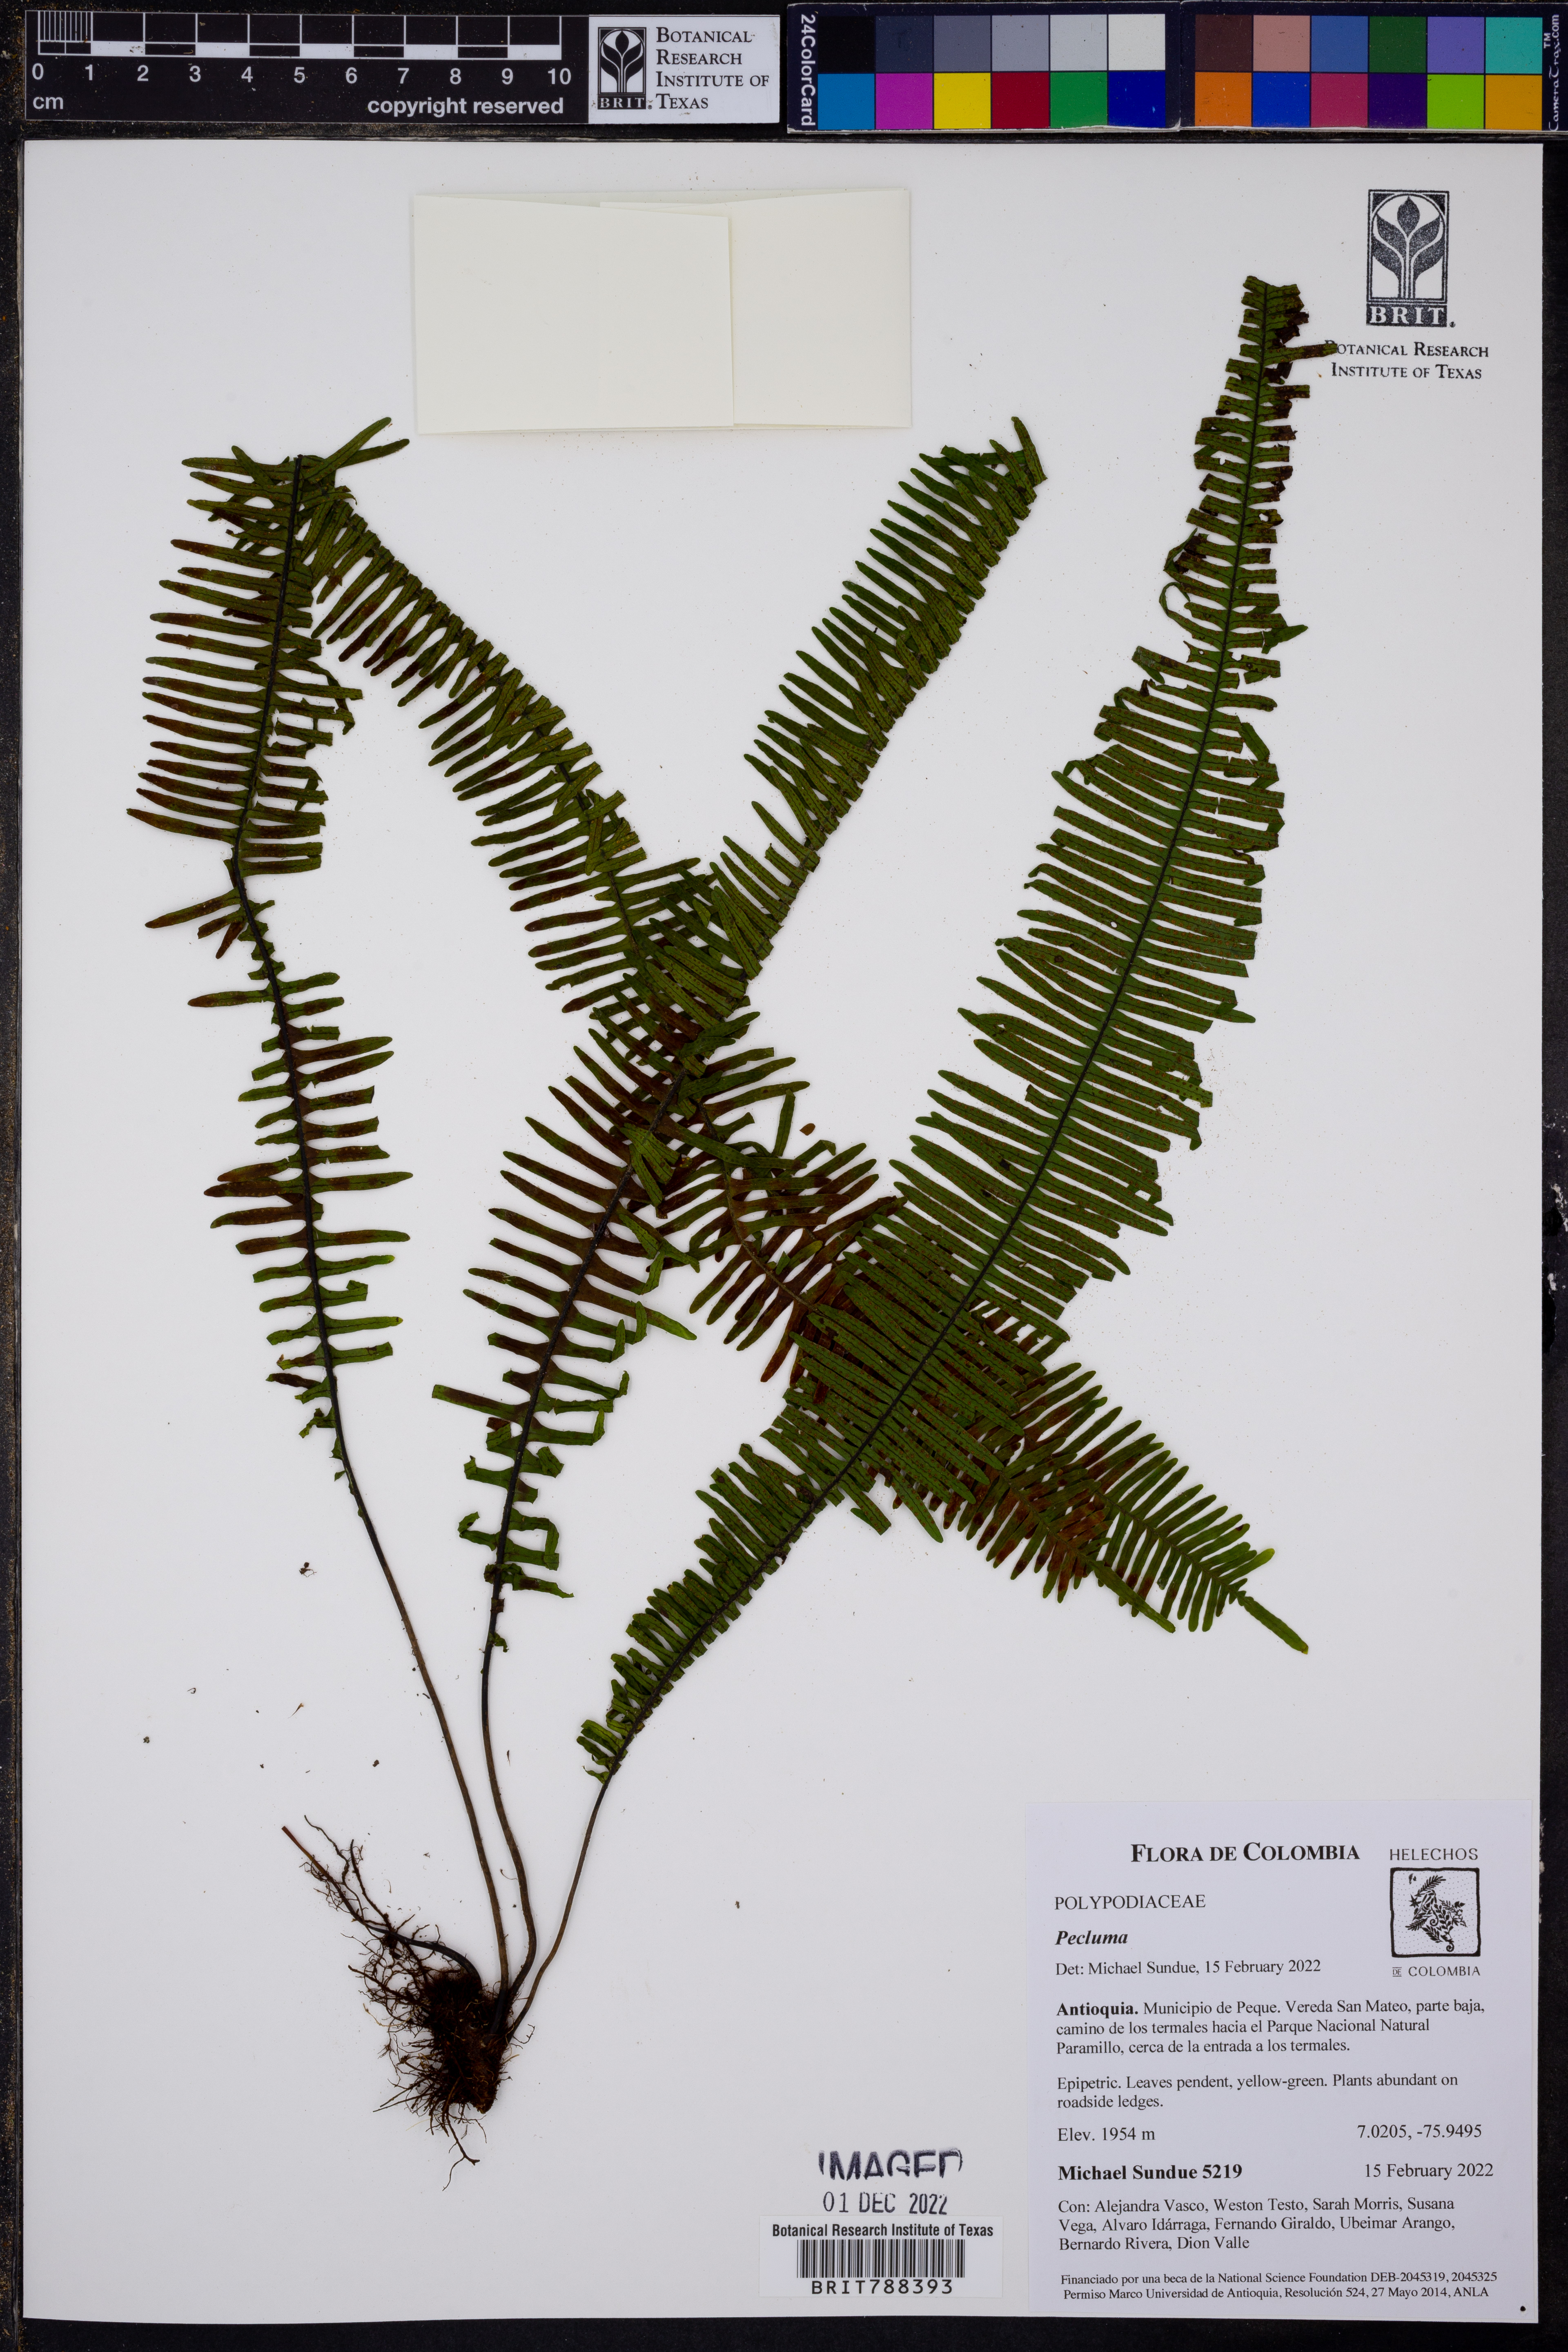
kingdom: Plantae
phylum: Tracheophyta
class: Polypodiopsida
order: Polypodiales
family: Polypodiaceae
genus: Pecluma
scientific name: Pecluma plumula
